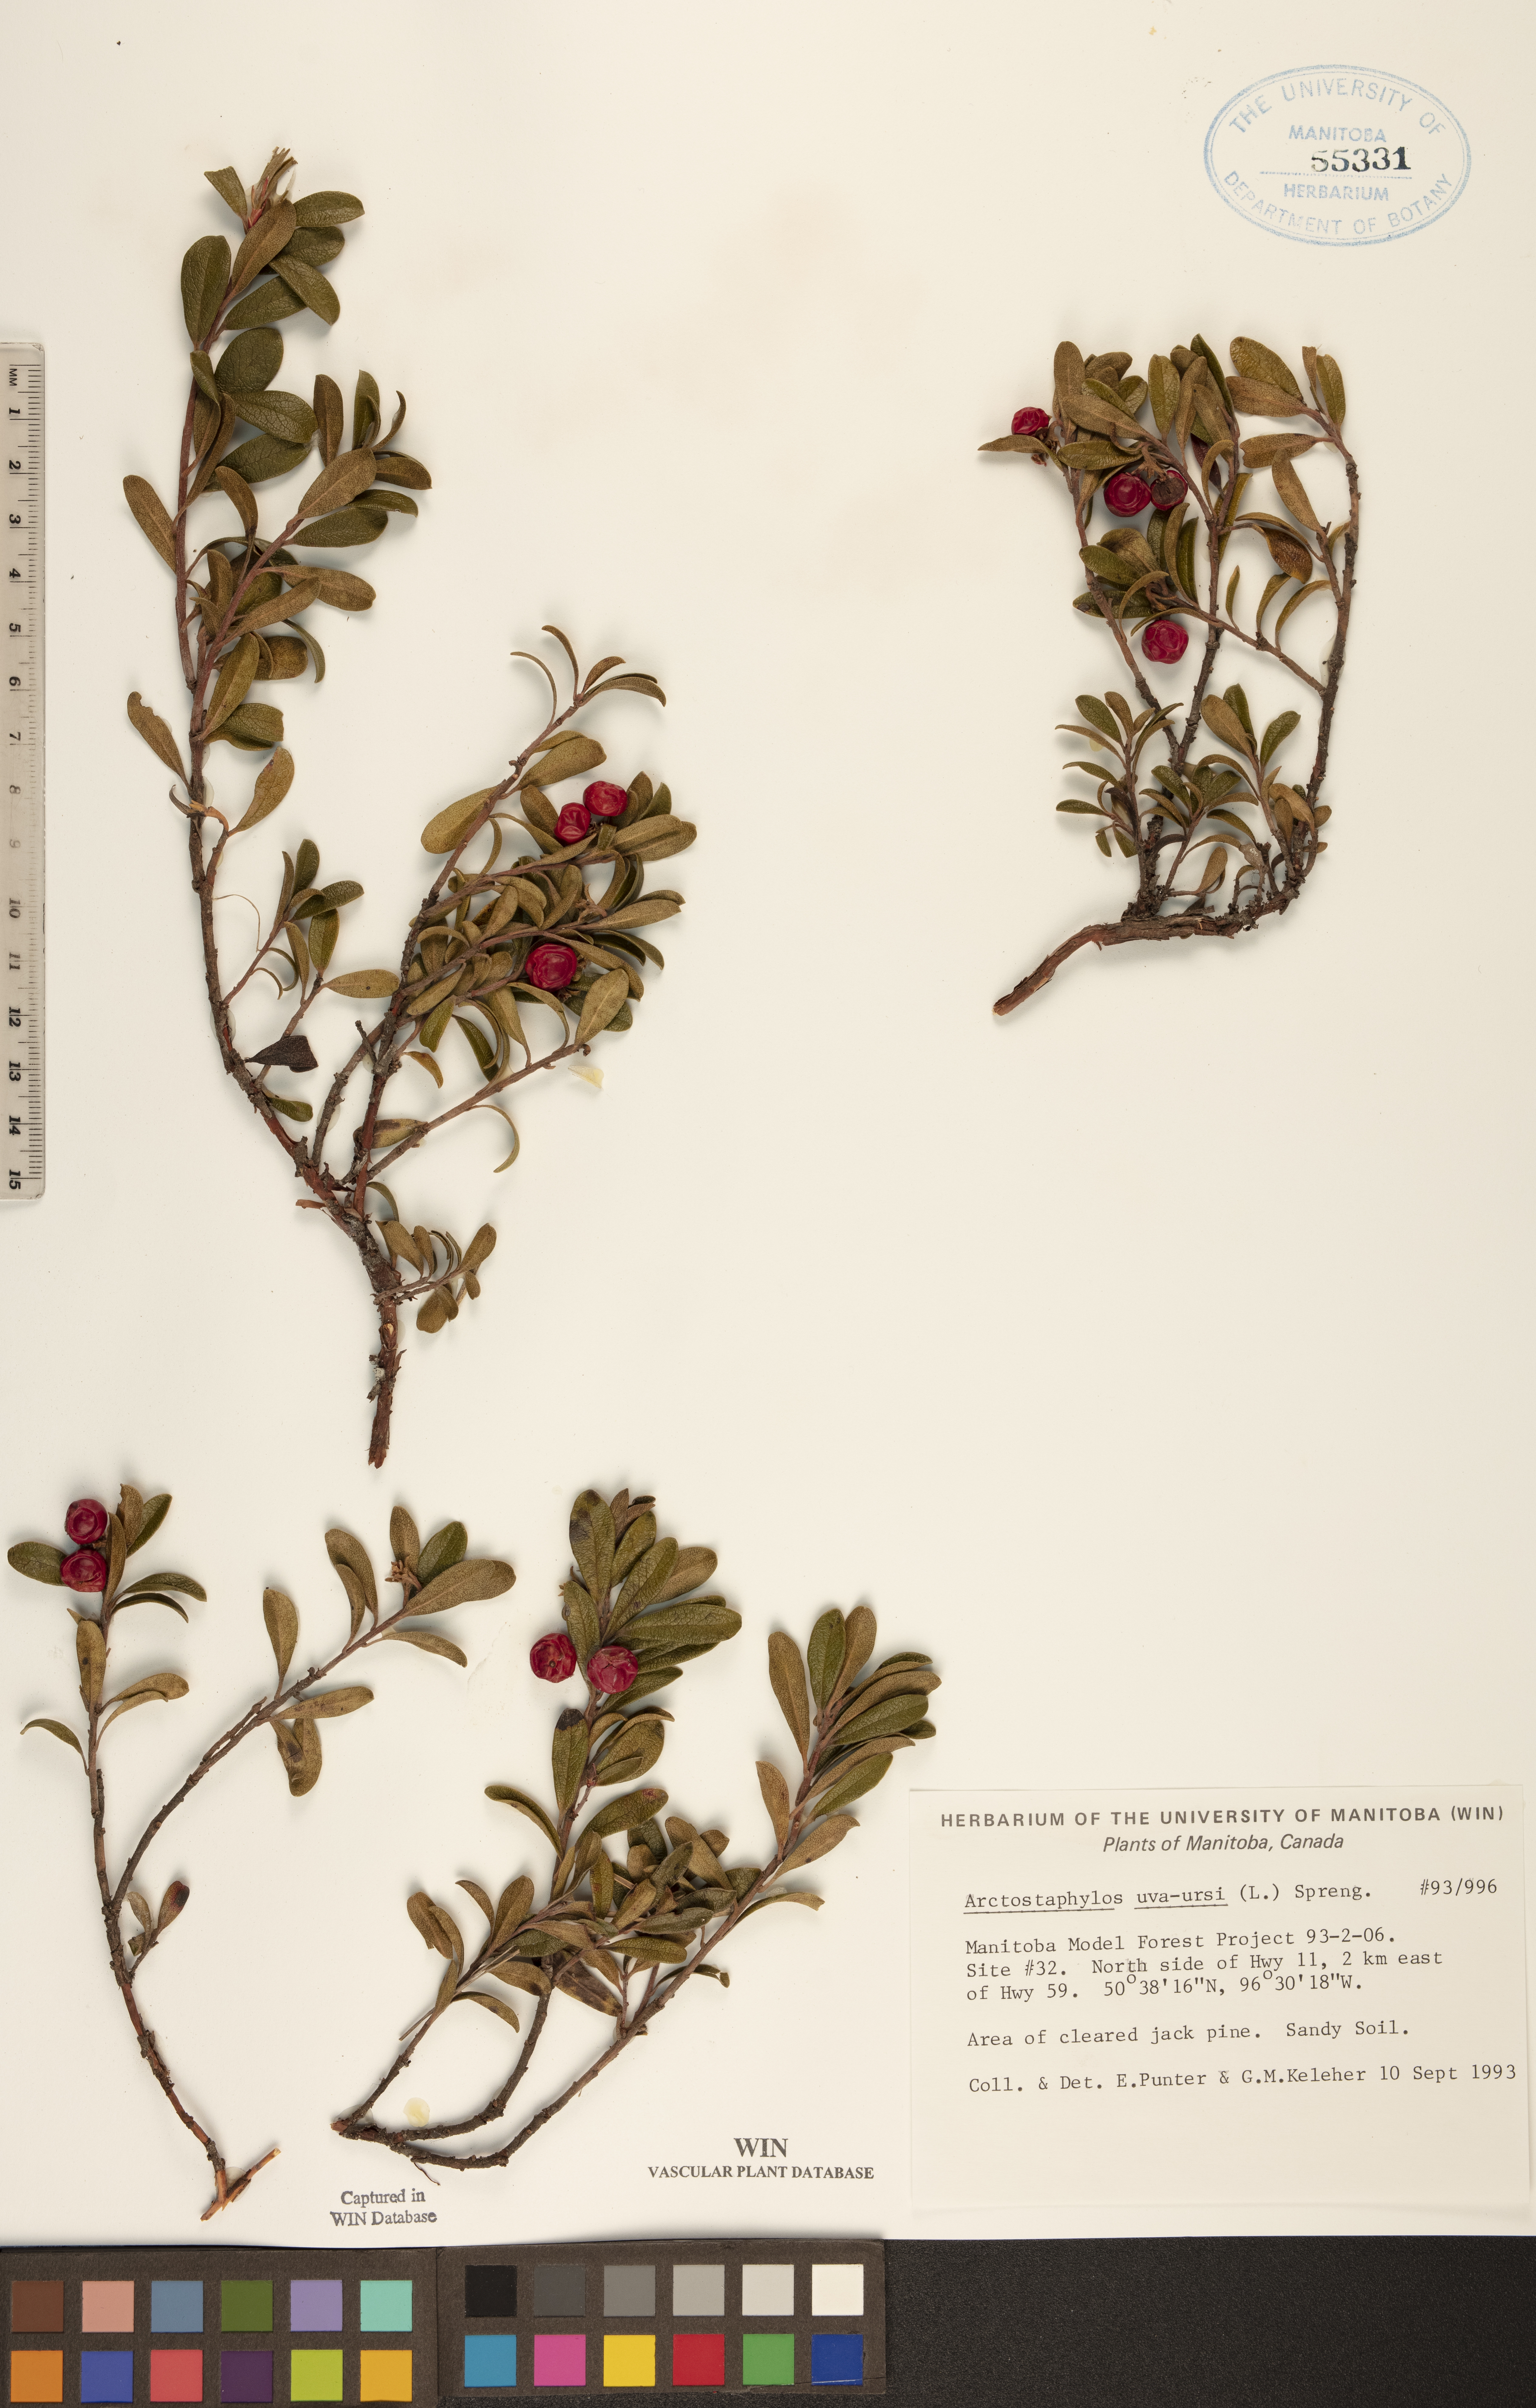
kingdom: Plantae
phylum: Tracheophyta
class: Magnoliopsida
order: Ericales
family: Ericaceae
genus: Arctostaphylos
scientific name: Arctostaphylos uva-ursi
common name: Bearberry
